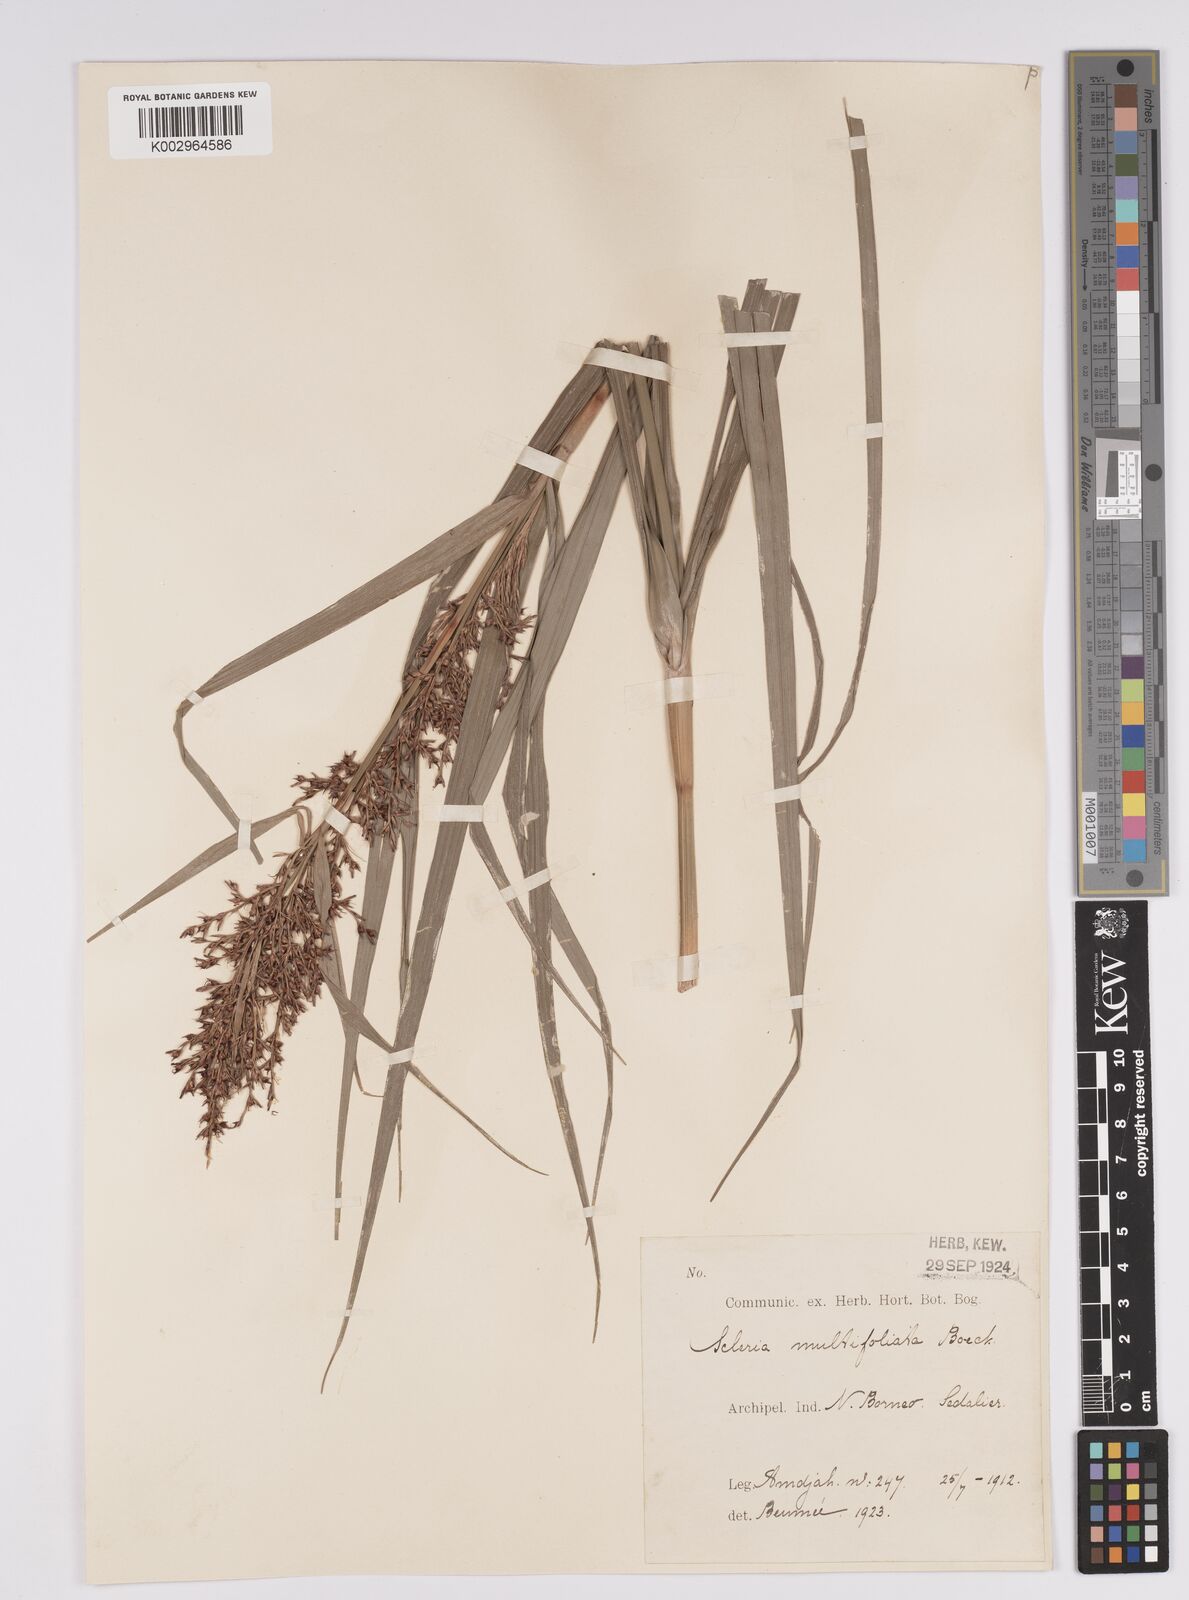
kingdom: Plantae
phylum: Tracheophyta
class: Liliopsida
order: Poales
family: Cyperaceae
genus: Scleria
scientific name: Scleria purpurascens
